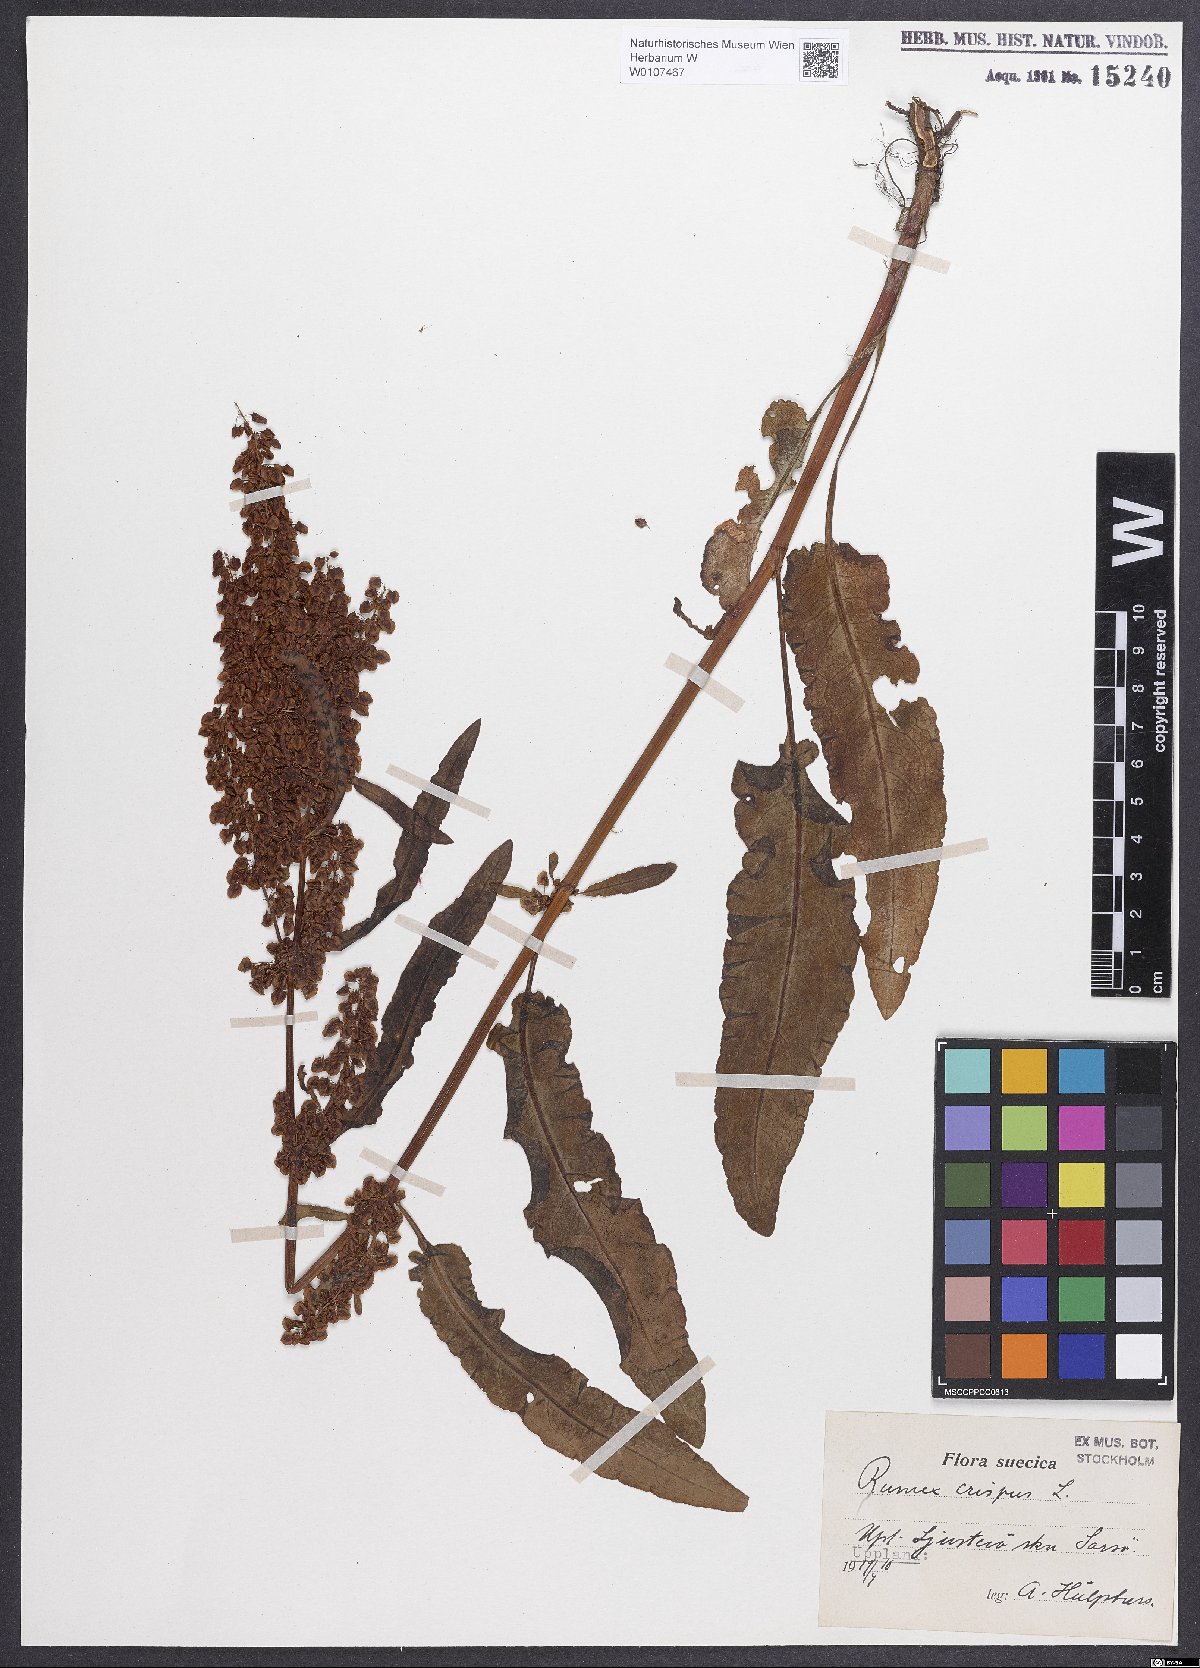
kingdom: Plantae
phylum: Tracheophyta
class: Magnoliopsida
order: Caryophyllales
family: Polygonaceae
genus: Rumex
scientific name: Rumex crispus
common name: Curled dock
